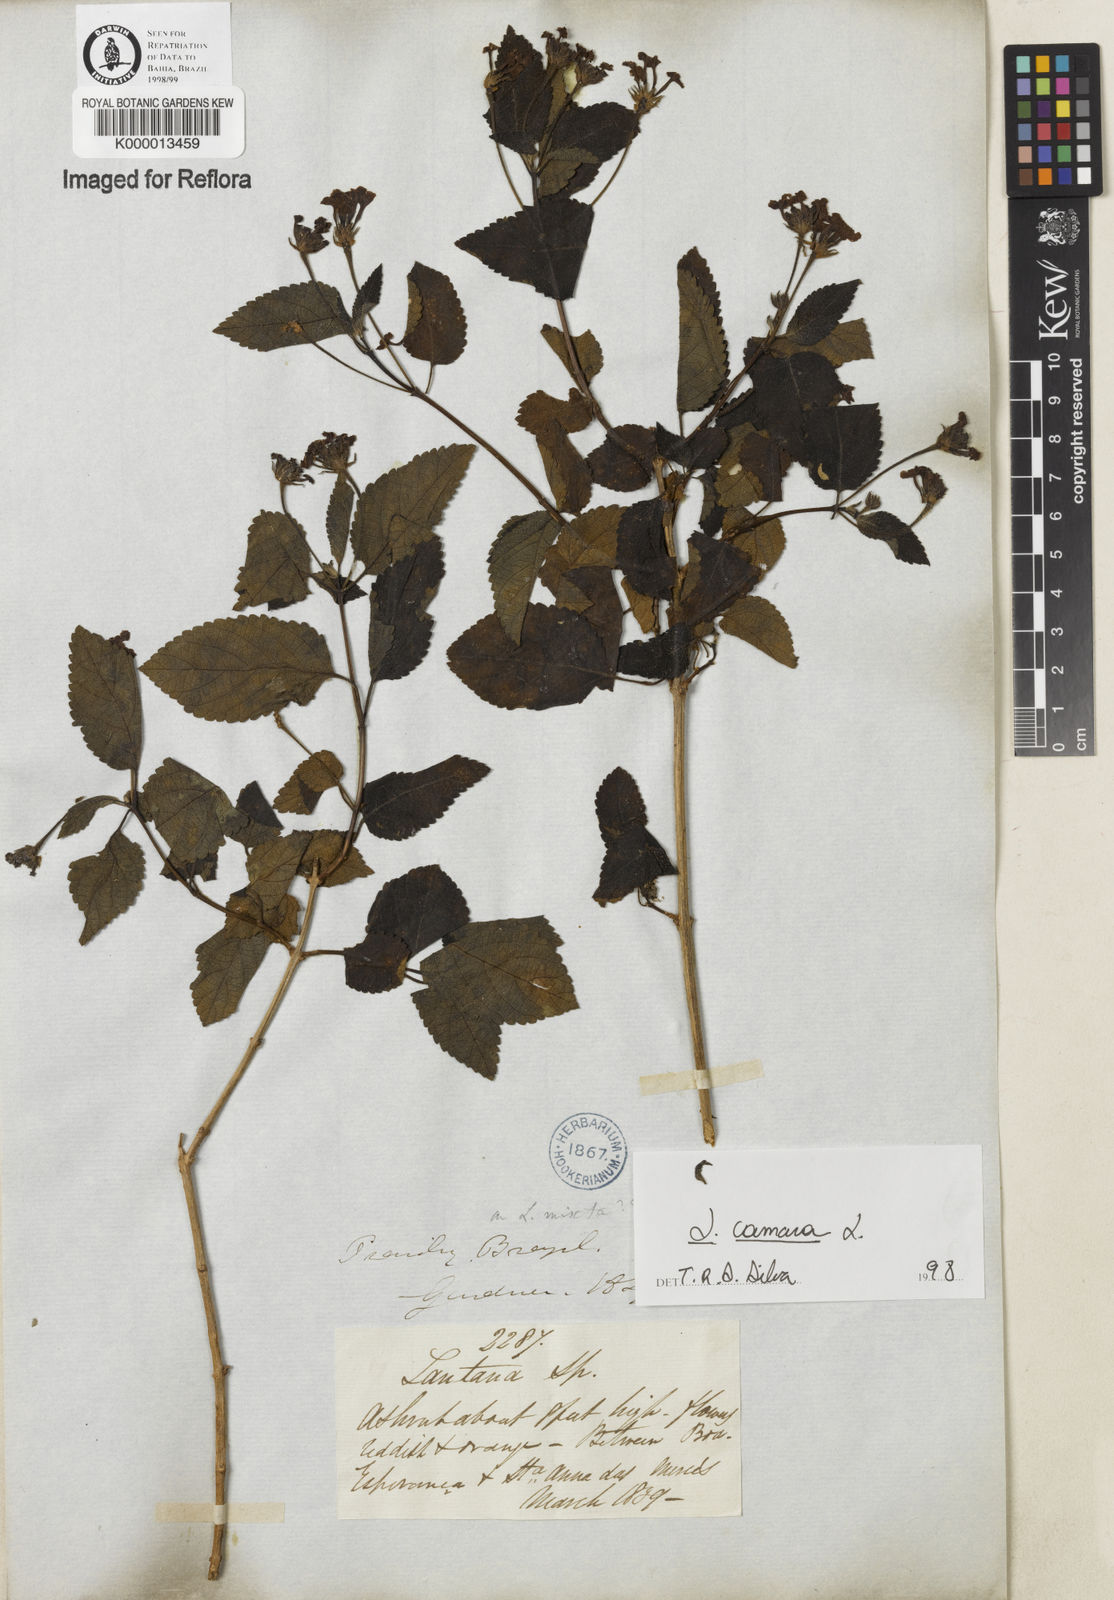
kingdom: Plantae
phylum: Tracheophyta
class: Magnoliopsida
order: Lamiales
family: Verbenaceae
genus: Lantana
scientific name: Lantana camara
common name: Lantana
